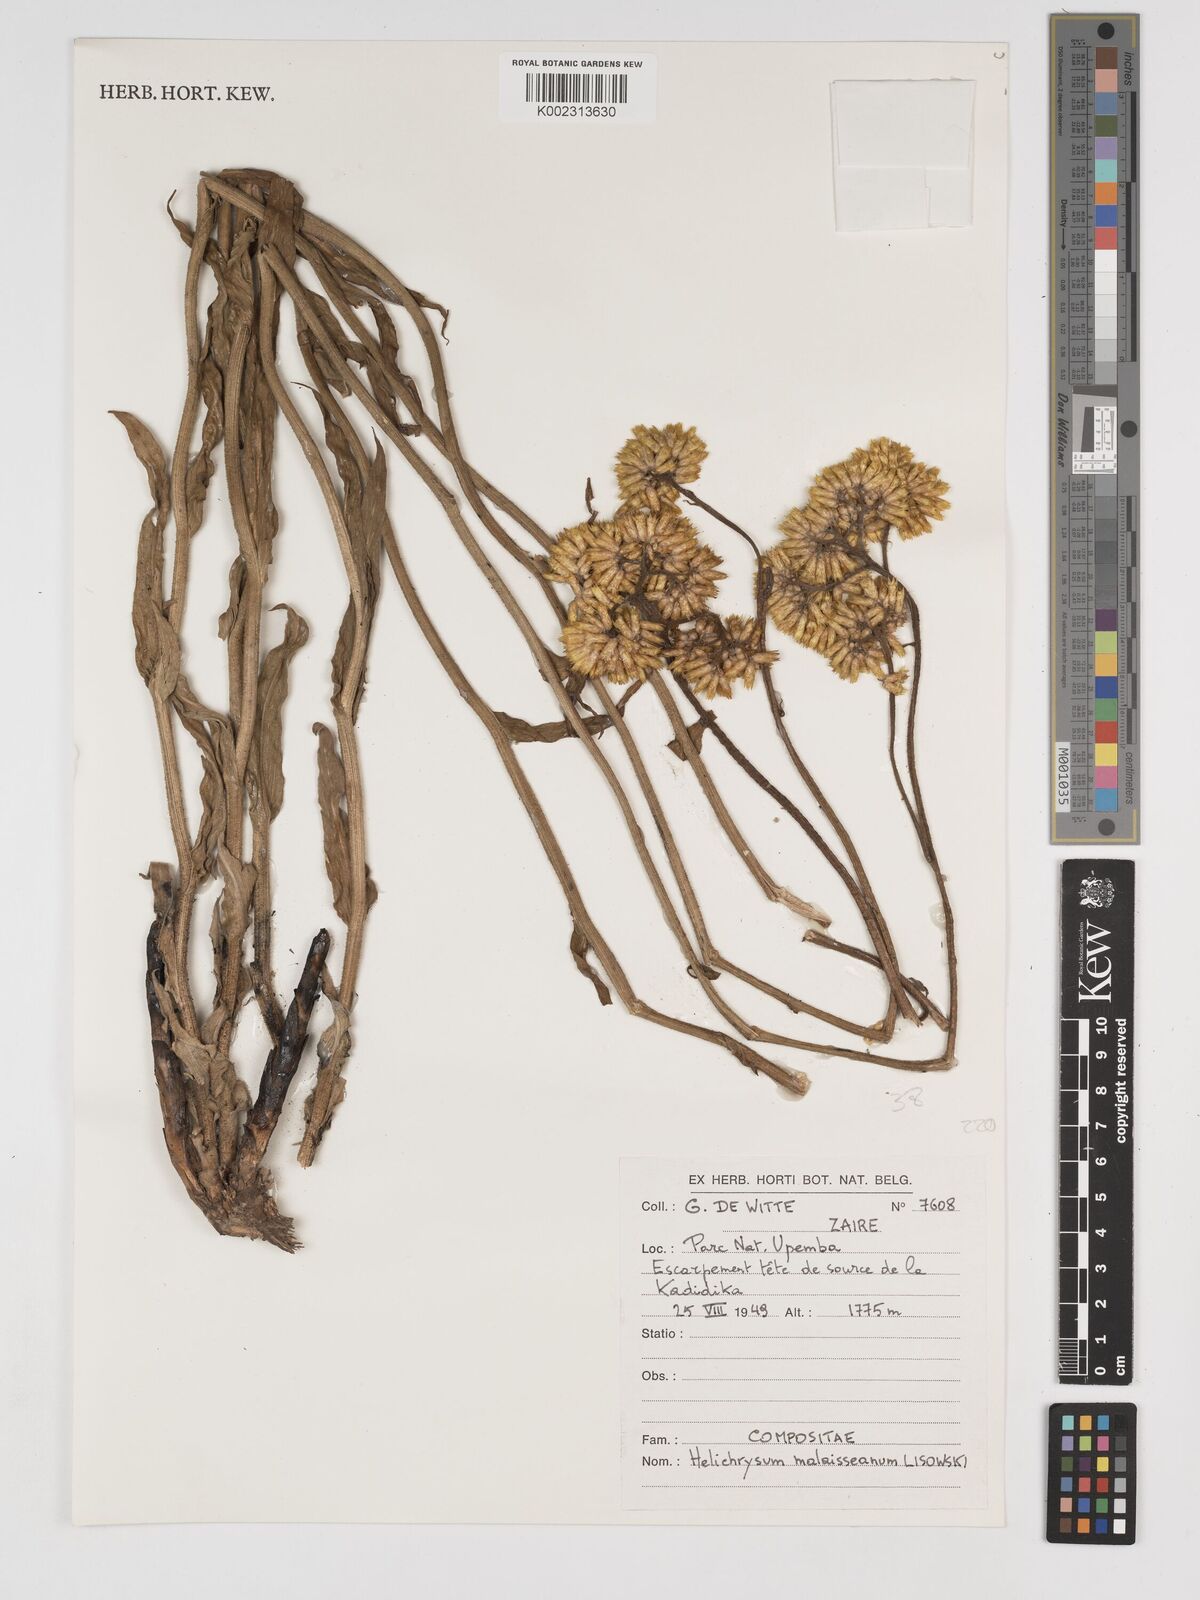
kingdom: Plantae
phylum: Tracheophyta
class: Magnoliopsida
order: Asterales
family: Asteraceae
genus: Helichrysum
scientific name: Helichrysum malaisseanum
